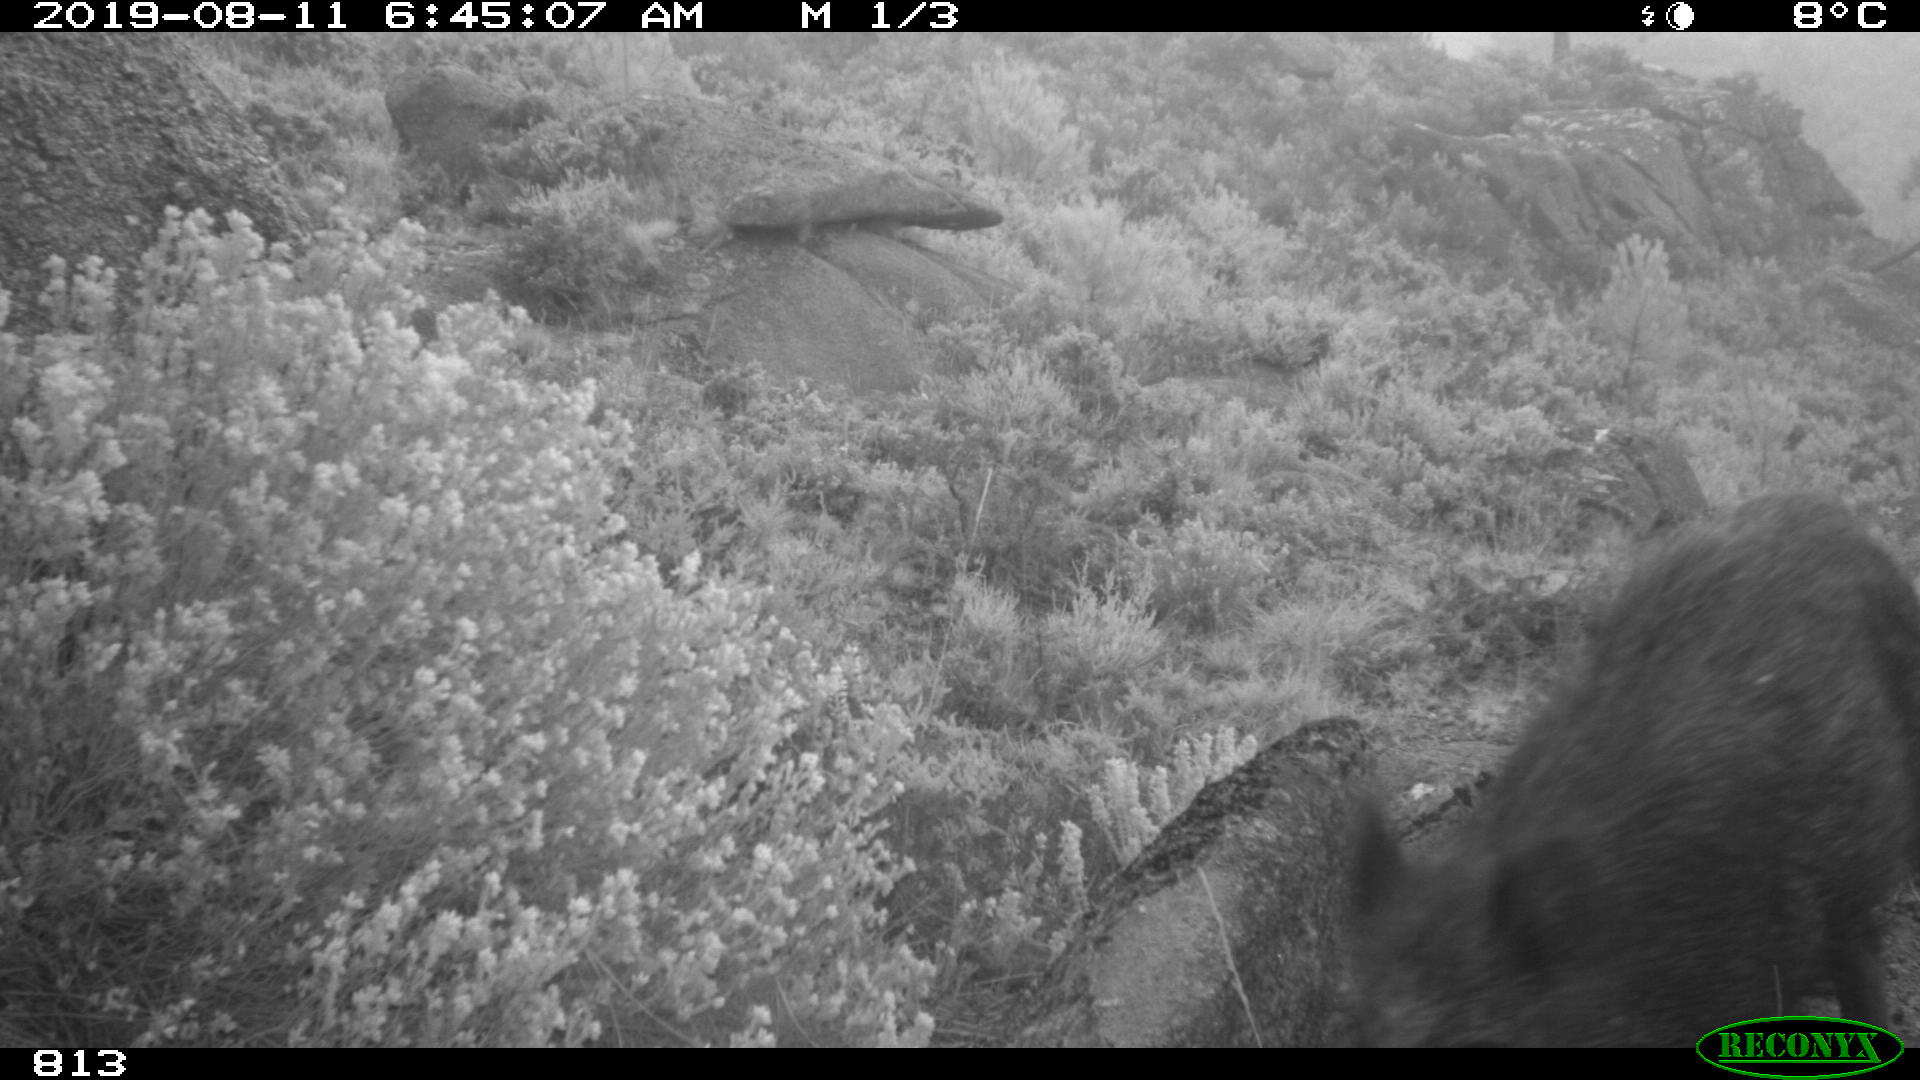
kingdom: Animalia
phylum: Chordata
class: Mammalia
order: Artiodactyla
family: Suidae
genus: Sus
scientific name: Sus scrofa
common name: Wild boar
